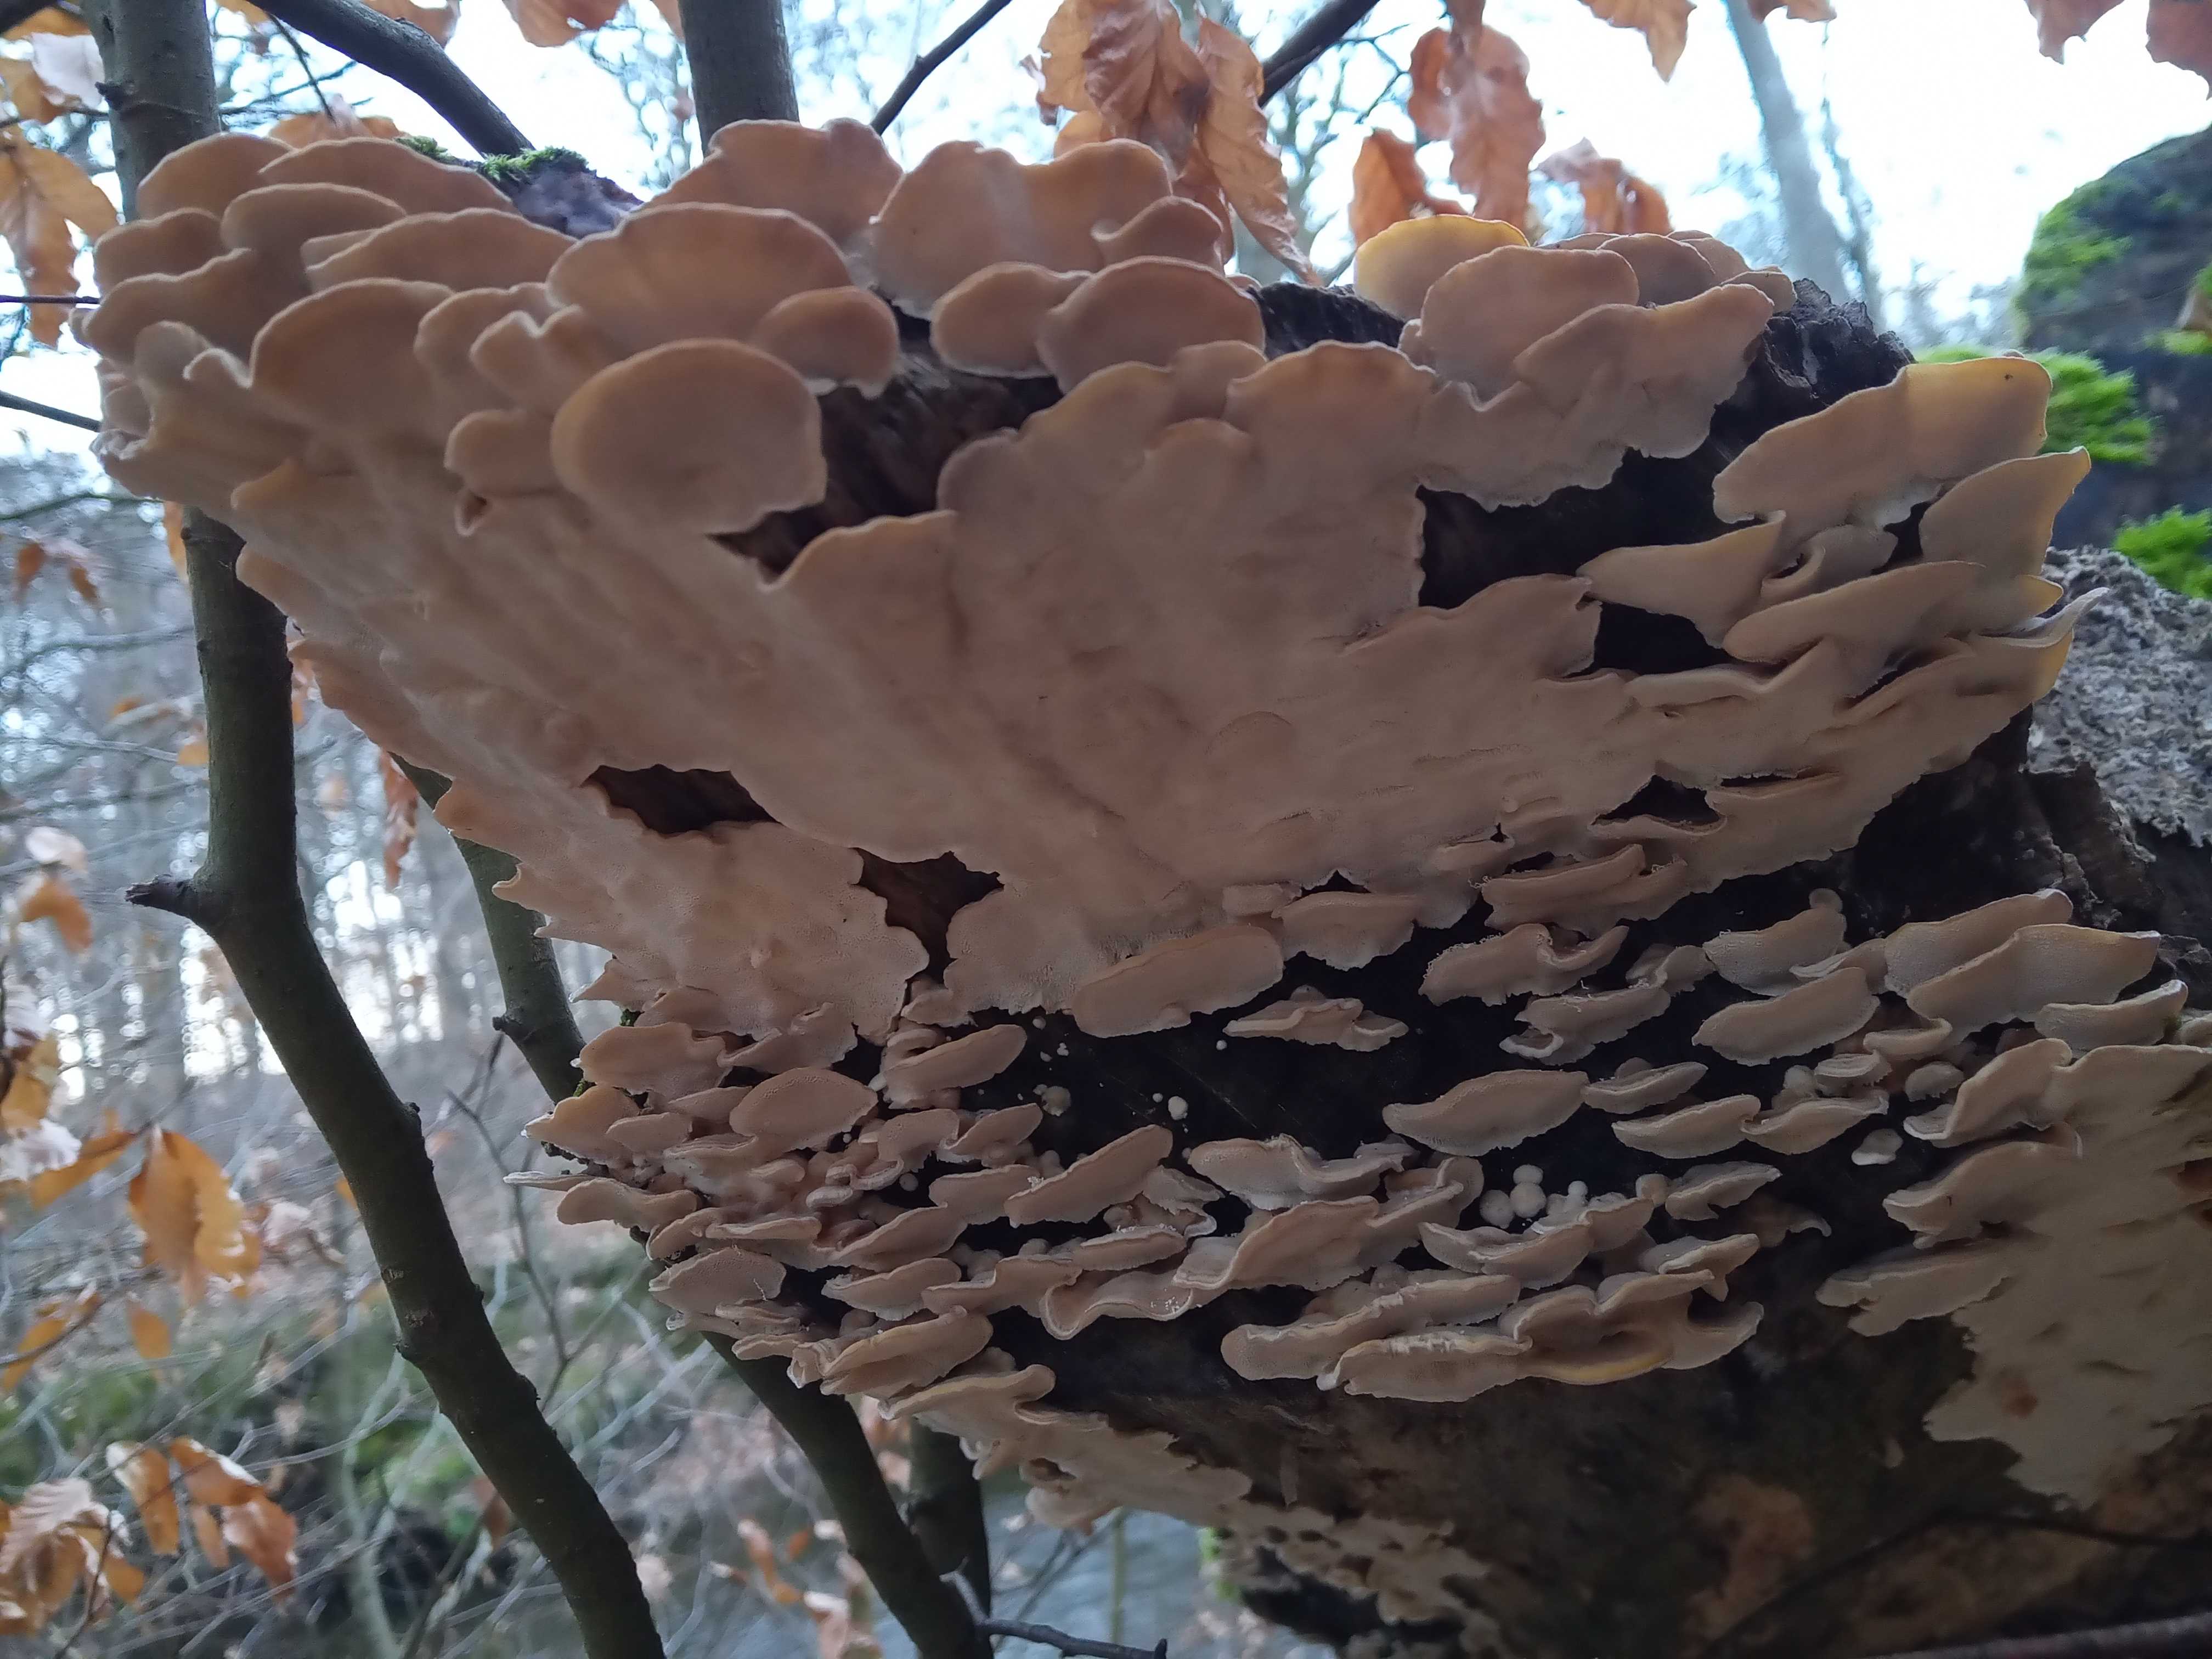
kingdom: Fungi
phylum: Basidiomycota
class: Agaricomycetes
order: Polyporales
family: Polyporaceae
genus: Trametes
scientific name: Trametes versicolor
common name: broget læderporesvamp
